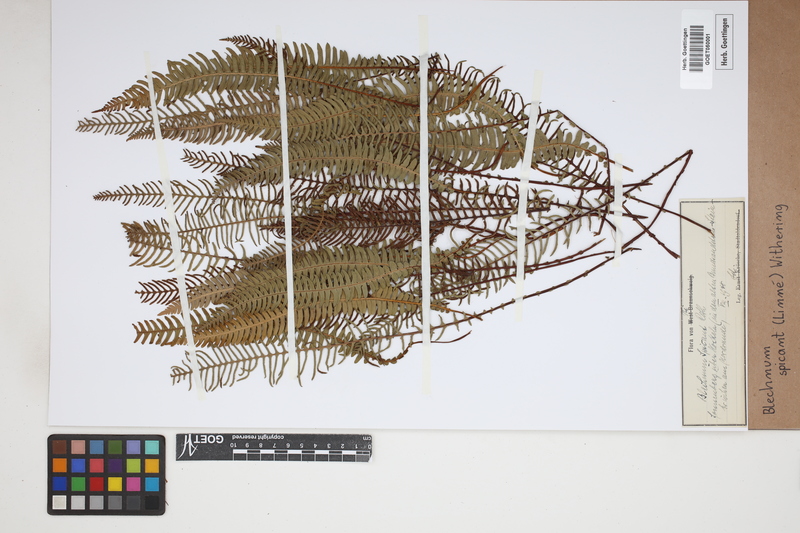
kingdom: Plantae
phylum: Tracheophyta
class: Polypodiopsida
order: Polypodiales
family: Blechnaceae
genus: Struthiopteris
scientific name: Struthiopteris spicant
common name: Deer fern
